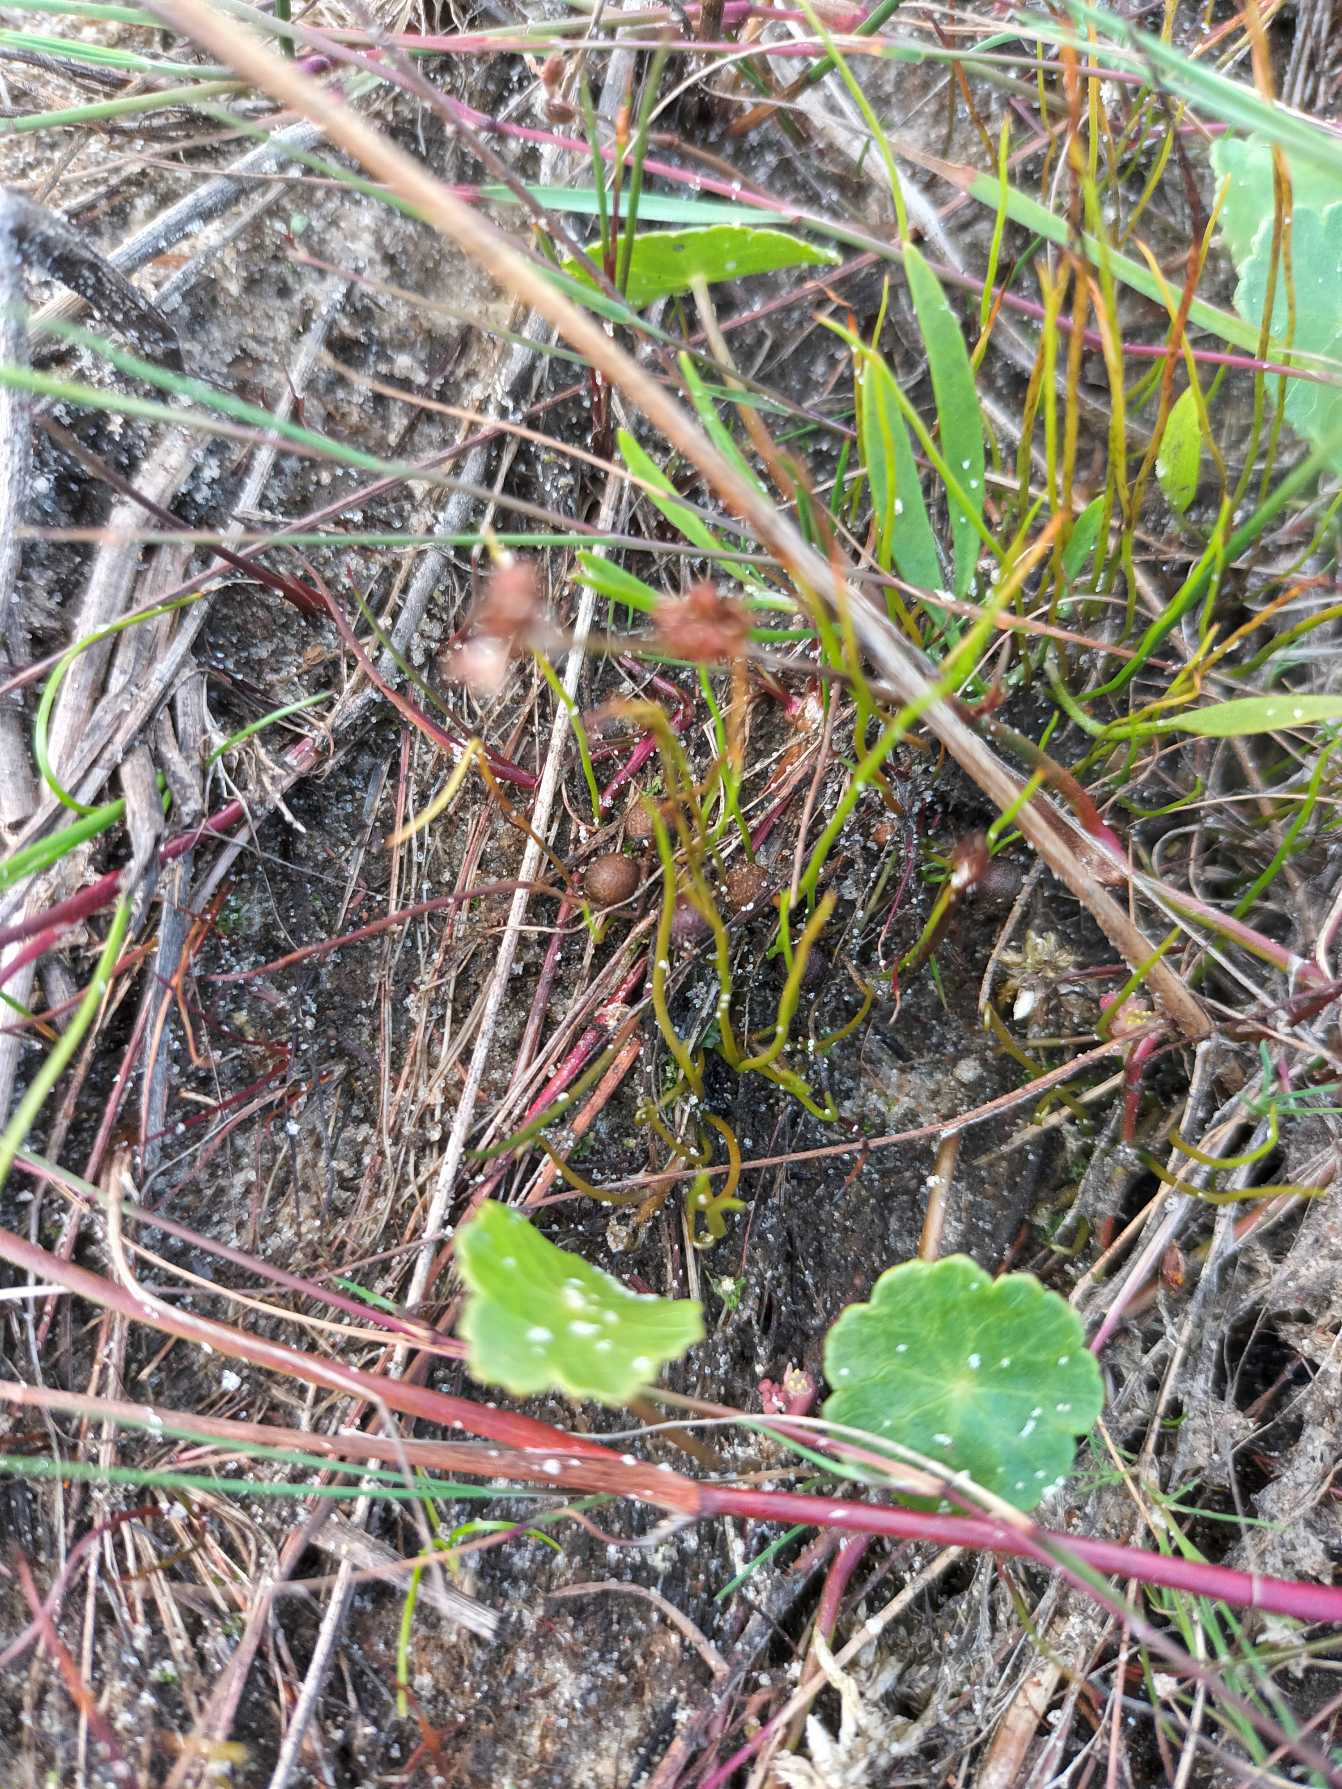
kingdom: Plantae
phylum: Tracheophyta
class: Polypodiopsida
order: Salviniales
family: Marsileaceae
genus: Pilularia
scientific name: Pilularia globulifera
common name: Pilledrager
